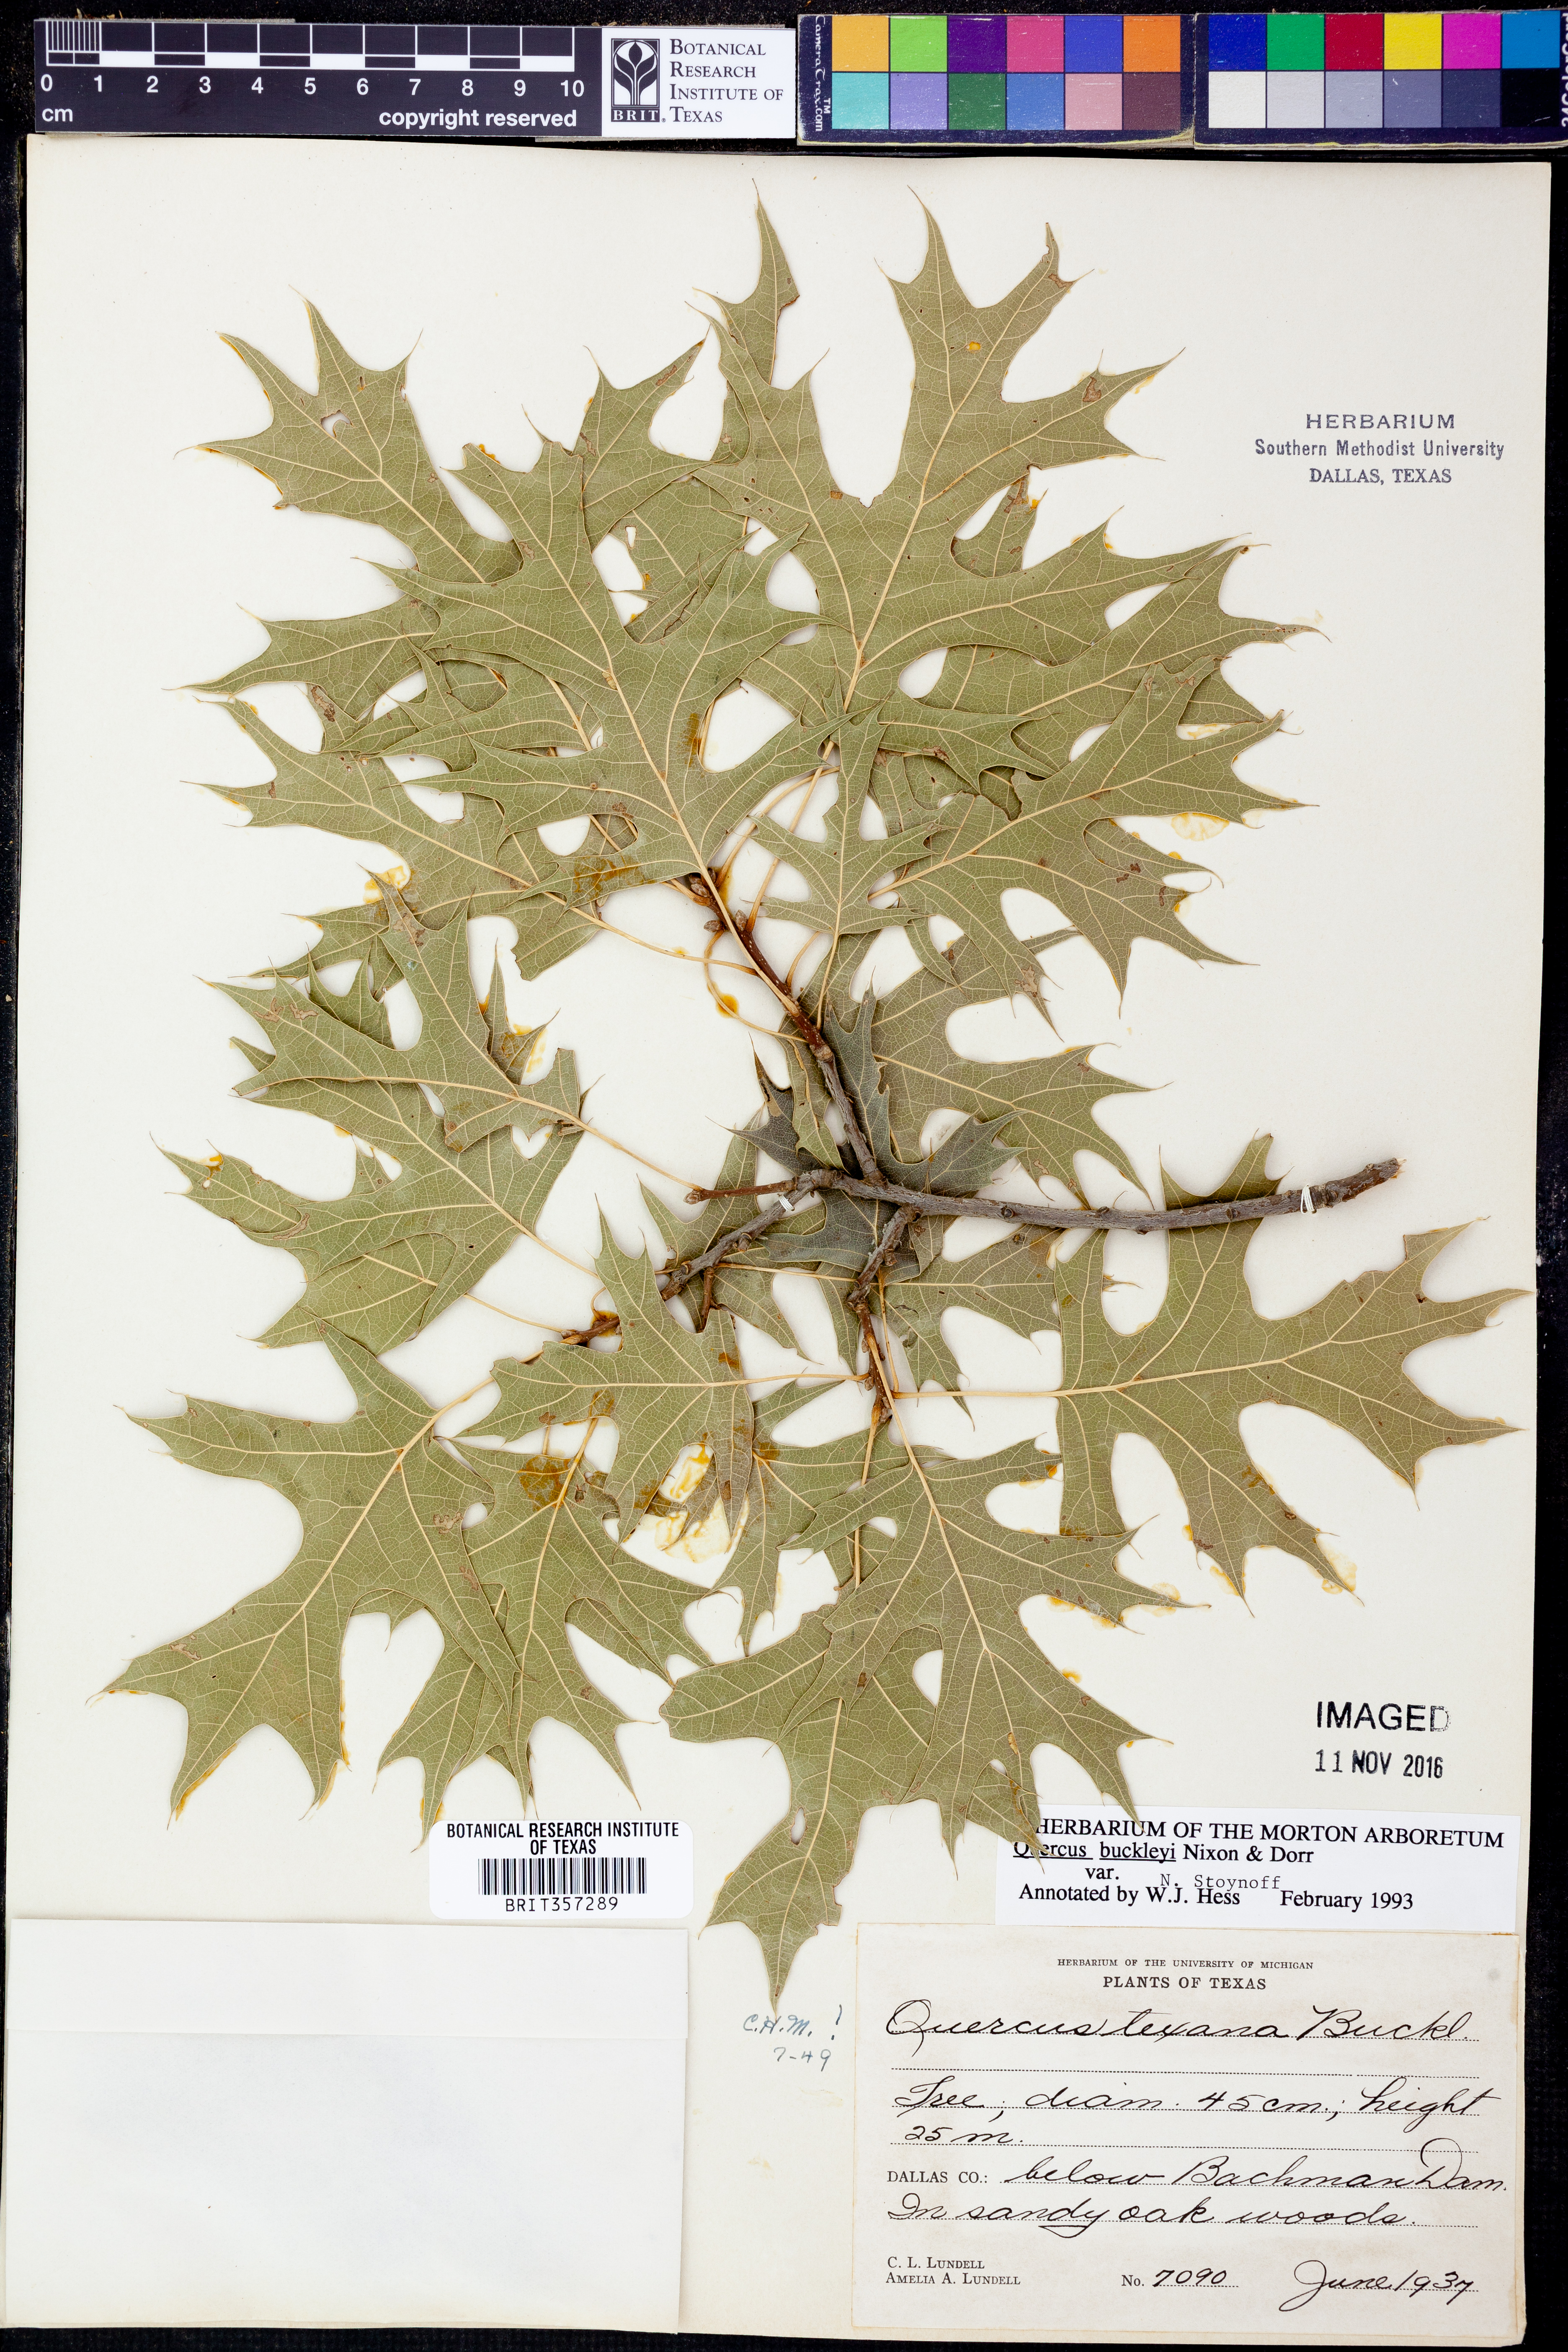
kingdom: Plantae
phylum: Tracheophyta
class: Magnoliopsida
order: Fagales
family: Fagaceae
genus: Quercus
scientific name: Quercus buckleyi
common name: Buckley oak
